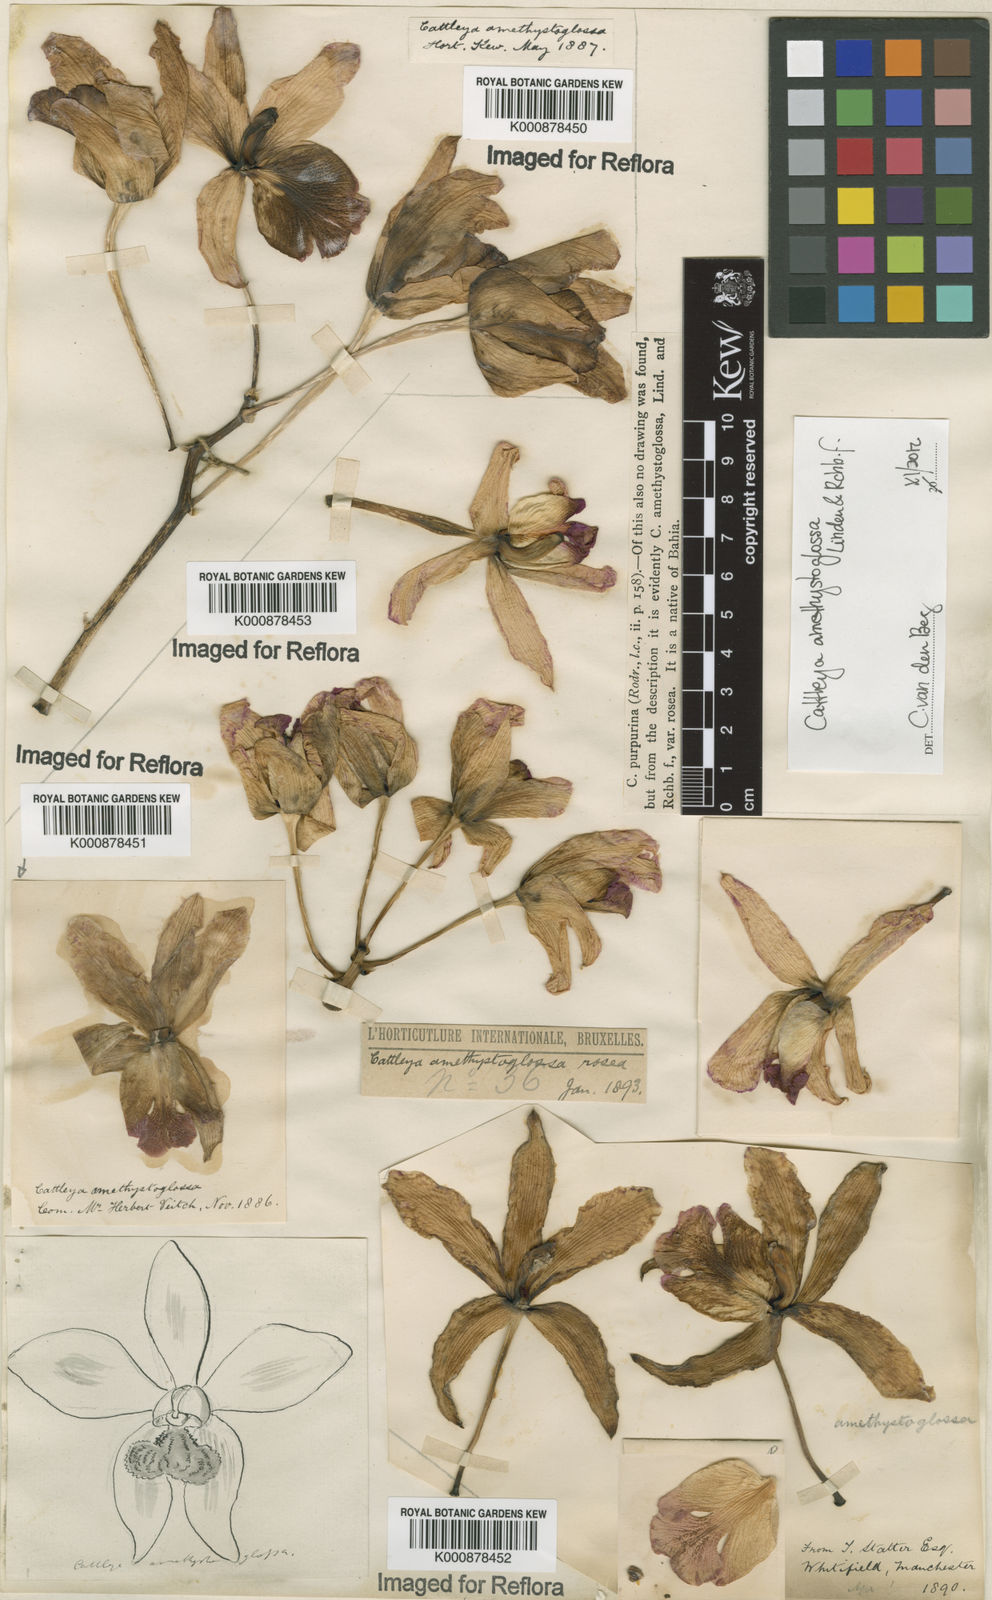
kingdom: Plantae
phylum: Tracheophyta
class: Liliopsida
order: Asparagales
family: Orchidaceae
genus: Cattleya
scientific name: Cattleya
